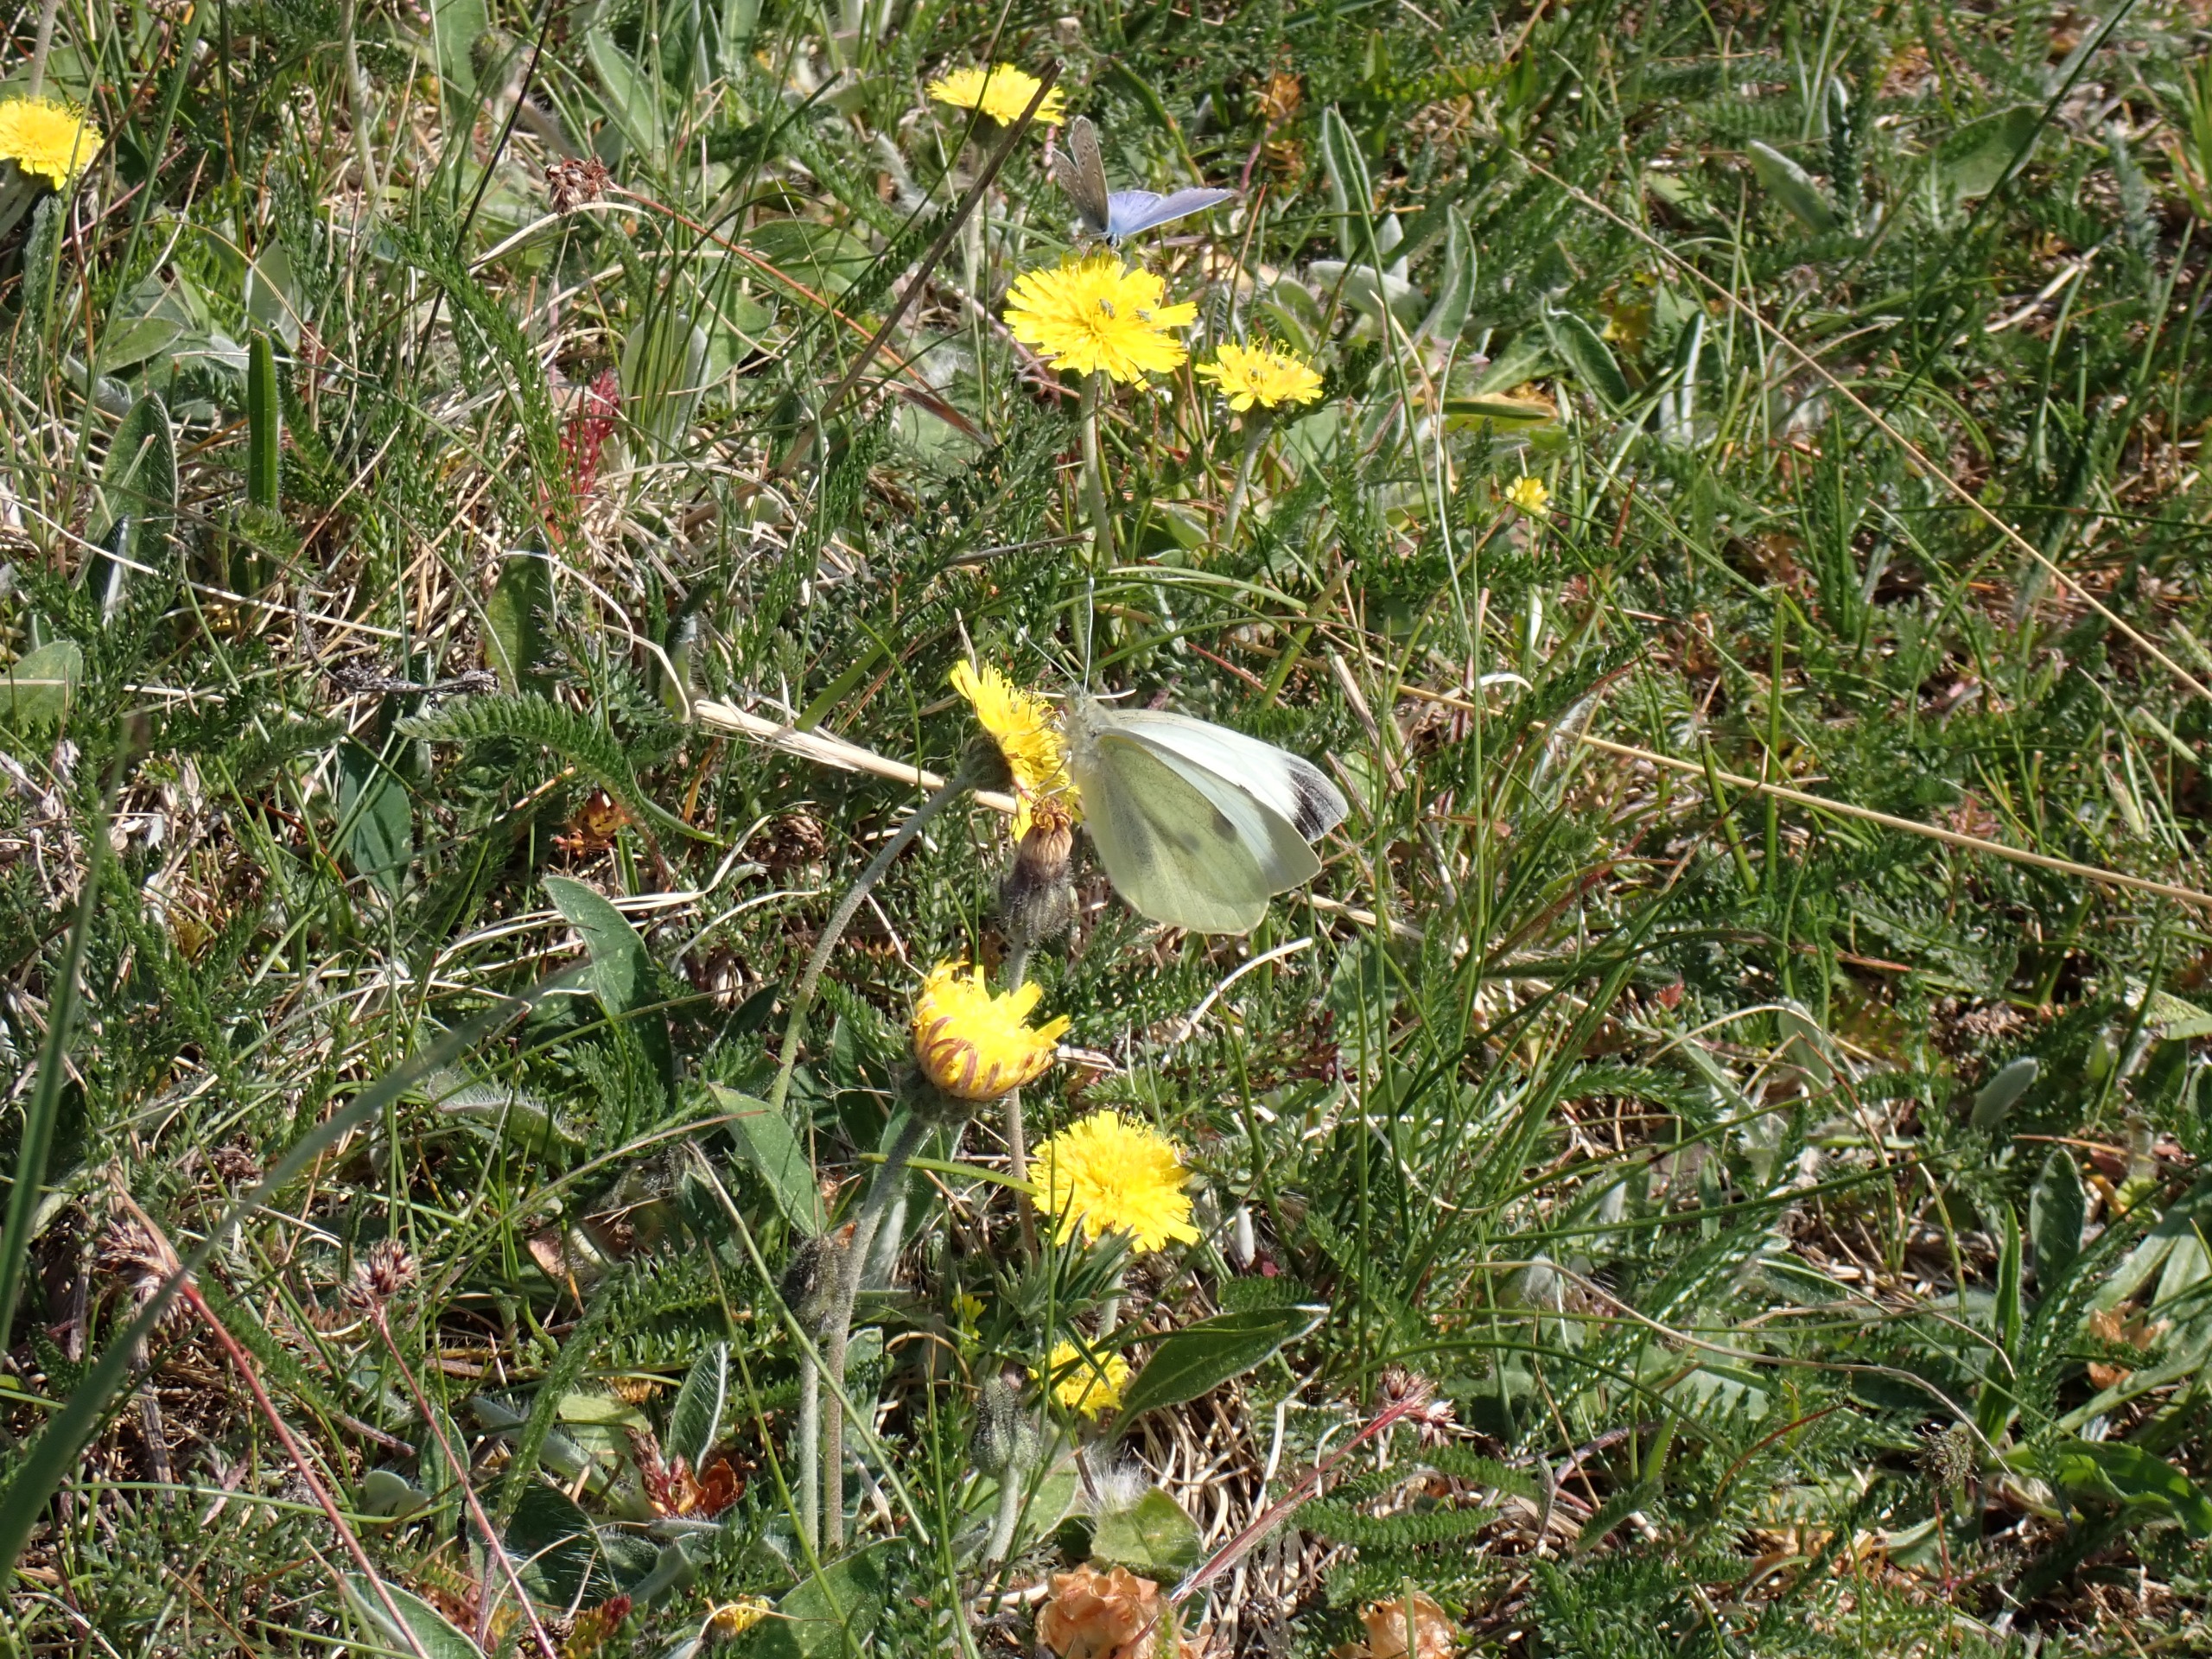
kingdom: Animalia
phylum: Arthropoda
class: Insecta
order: Lepidoptera
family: Pieridae
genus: Pieris
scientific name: Pieris brassicae
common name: Stor kålsommerfugl
